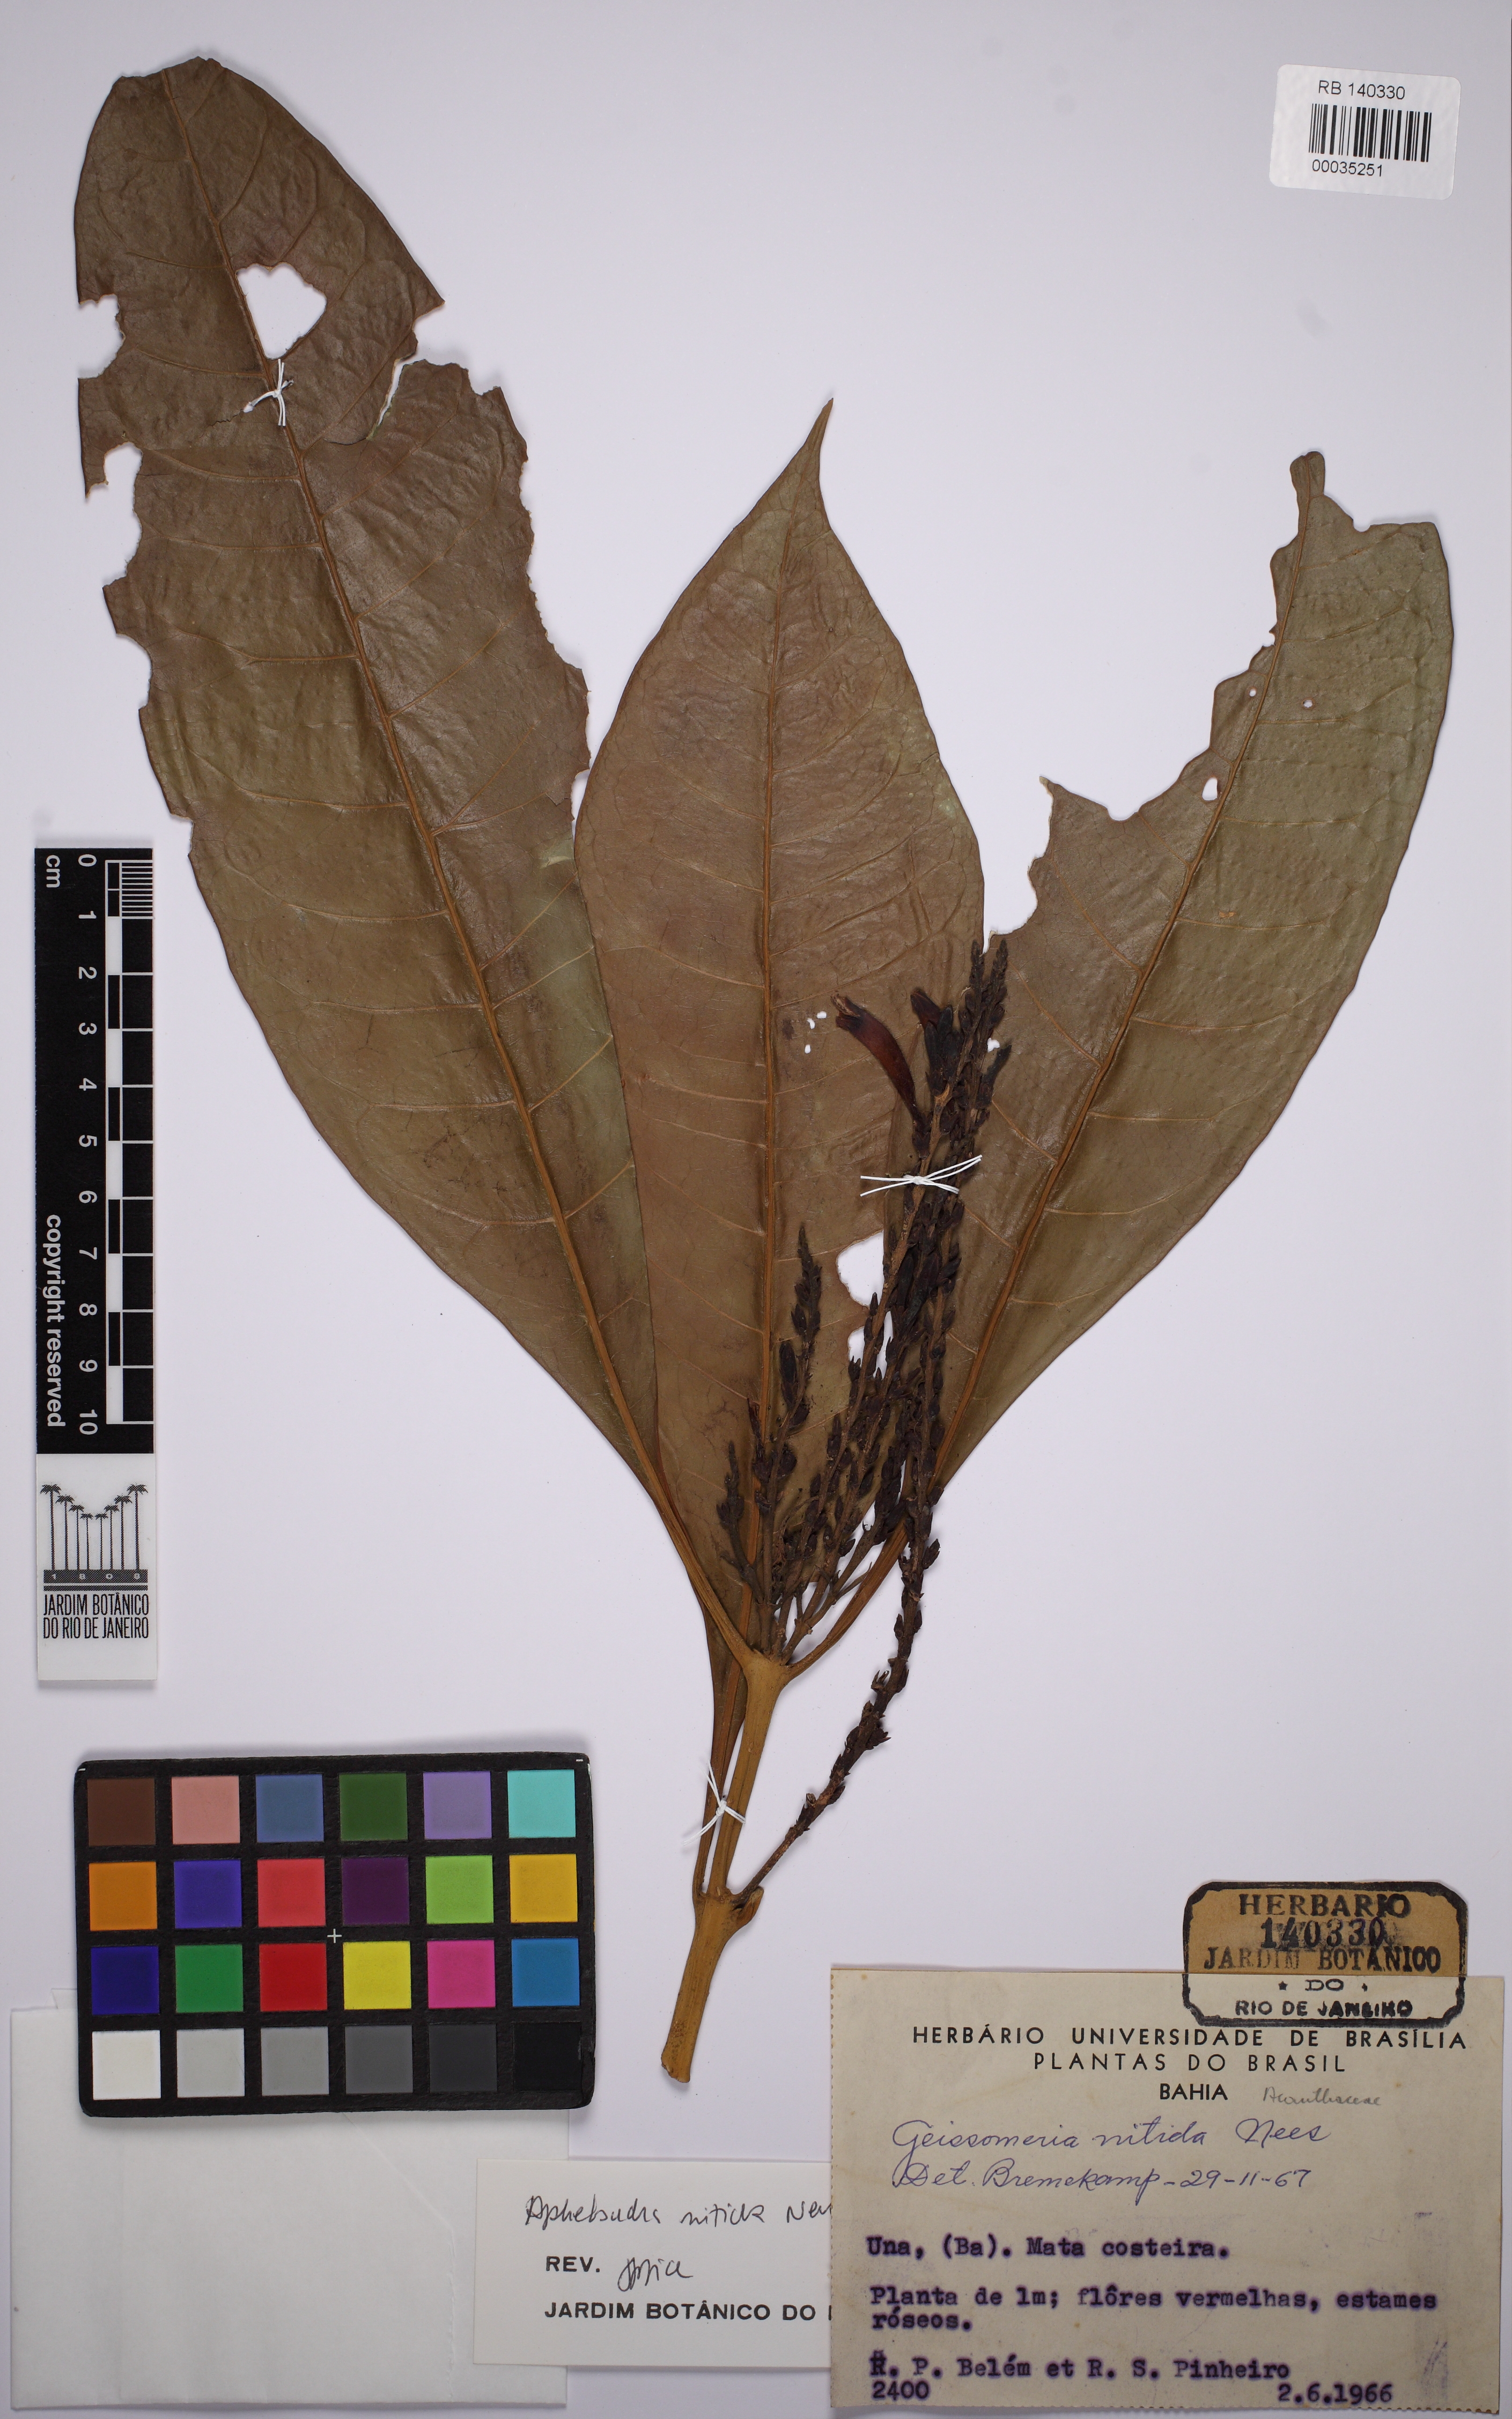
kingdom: Plantae
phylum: Tracheophyta
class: Magnoliopsida
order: Lamiales
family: Acanthaceae
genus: Aphelandra
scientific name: Aphelandra nitida
